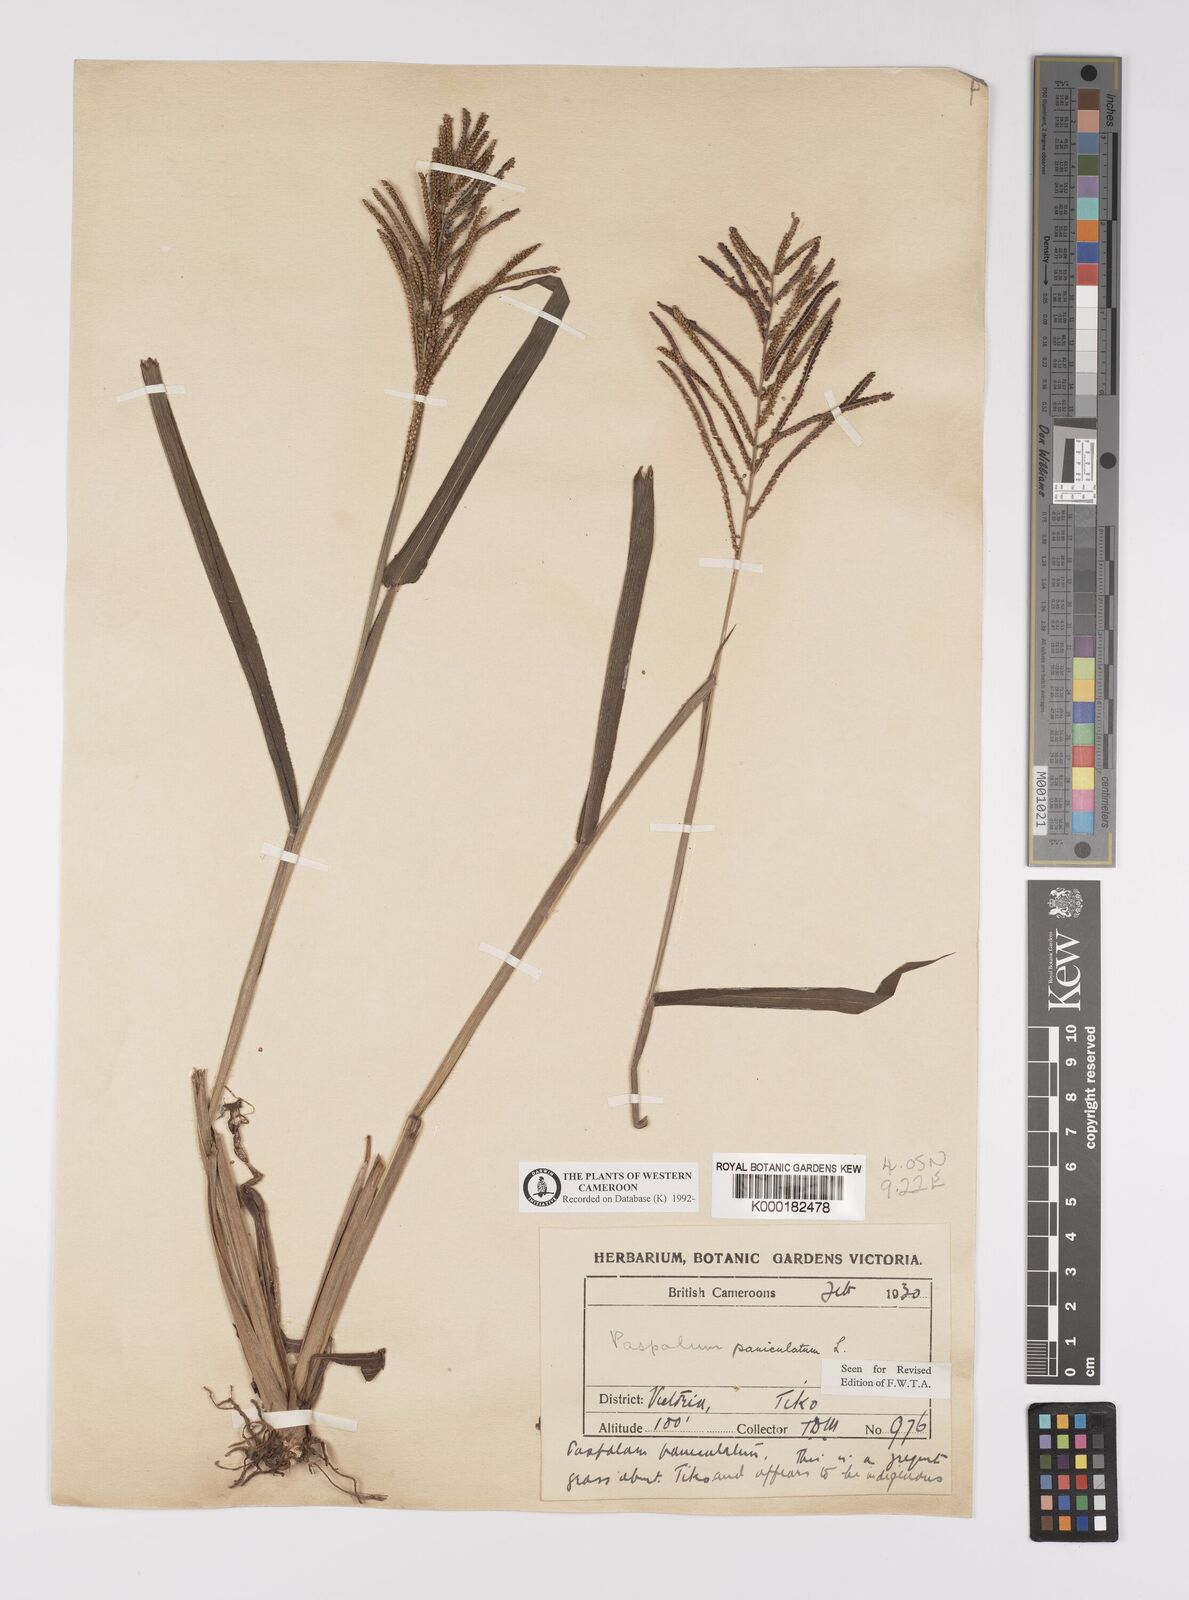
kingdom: Plantae
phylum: Tracheophyta
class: Liliopsida
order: Poales
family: Poaceae
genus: Paspalum
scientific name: Paspalum paniculatum
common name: Arrocillo
